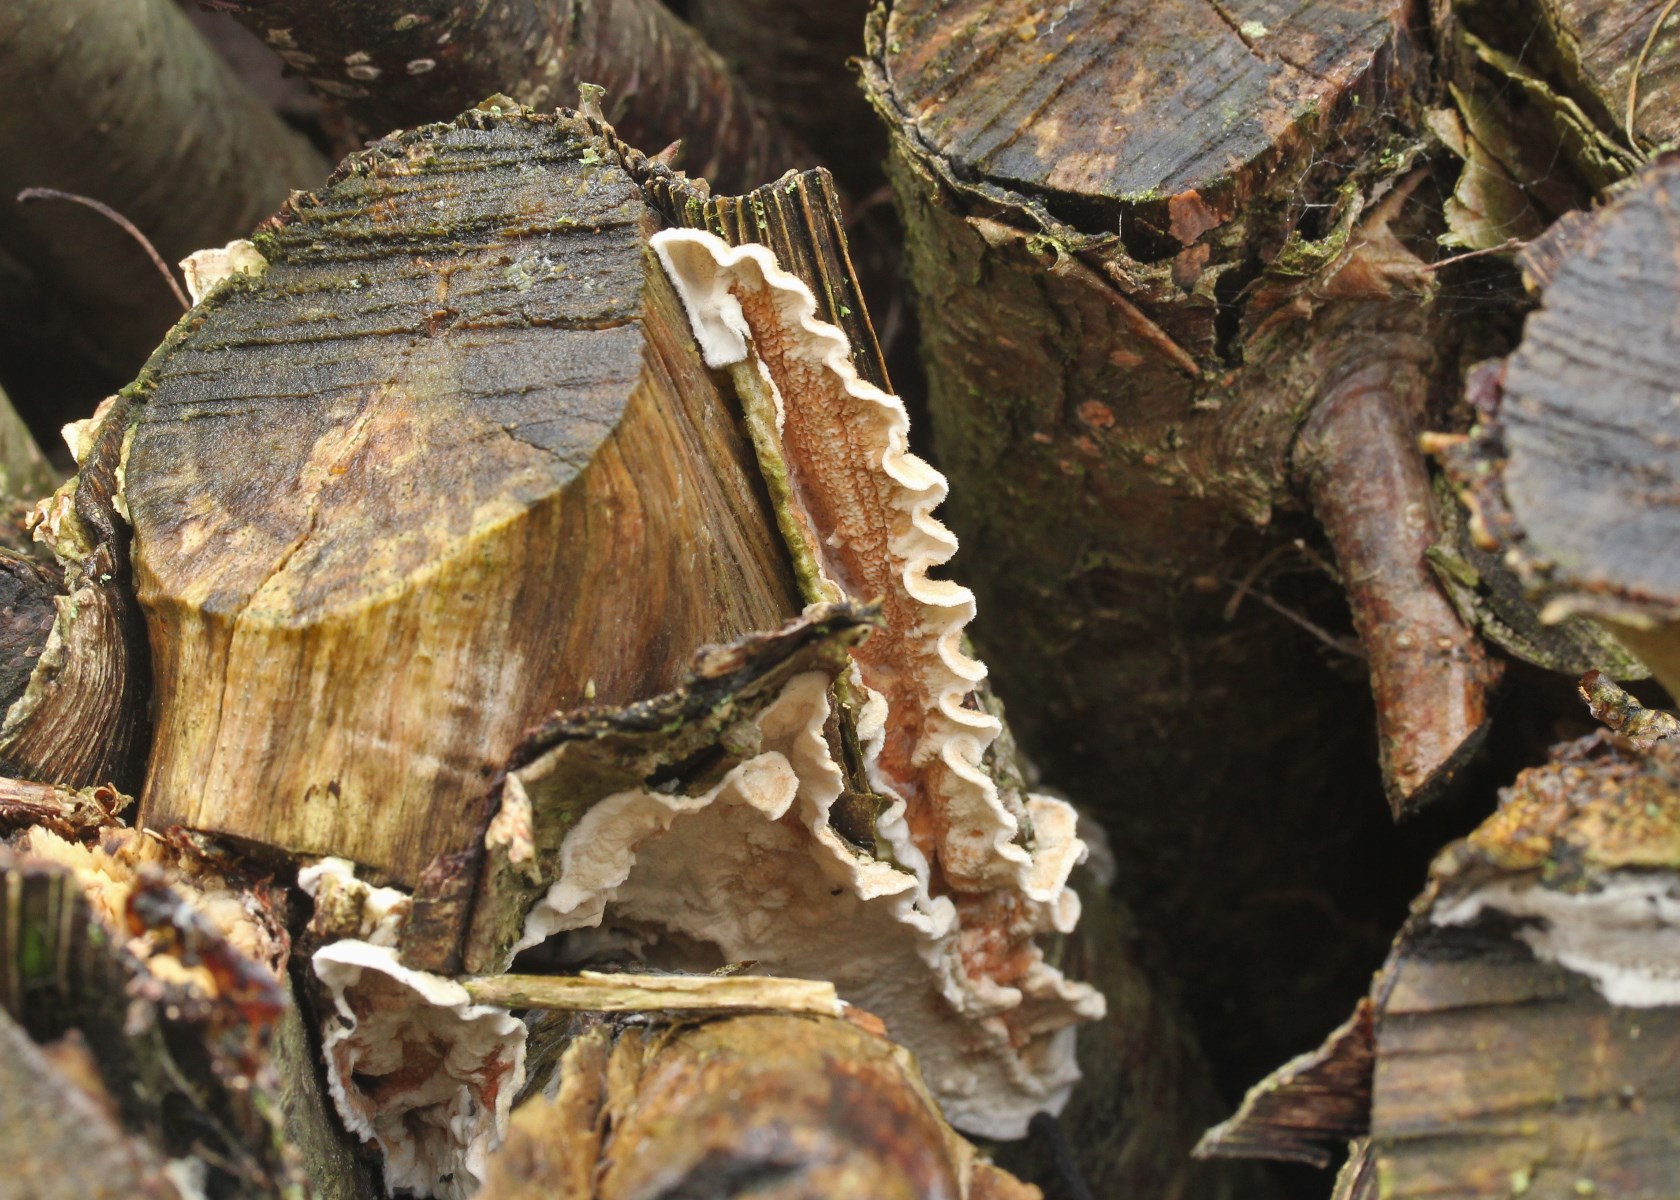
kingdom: Fungi
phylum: Basidiomycota
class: Agaricomycetes
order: Polyporales
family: Irpicaceae
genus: Byssomerulius
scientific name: Byssomerulius corium
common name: læder-åresvamp
